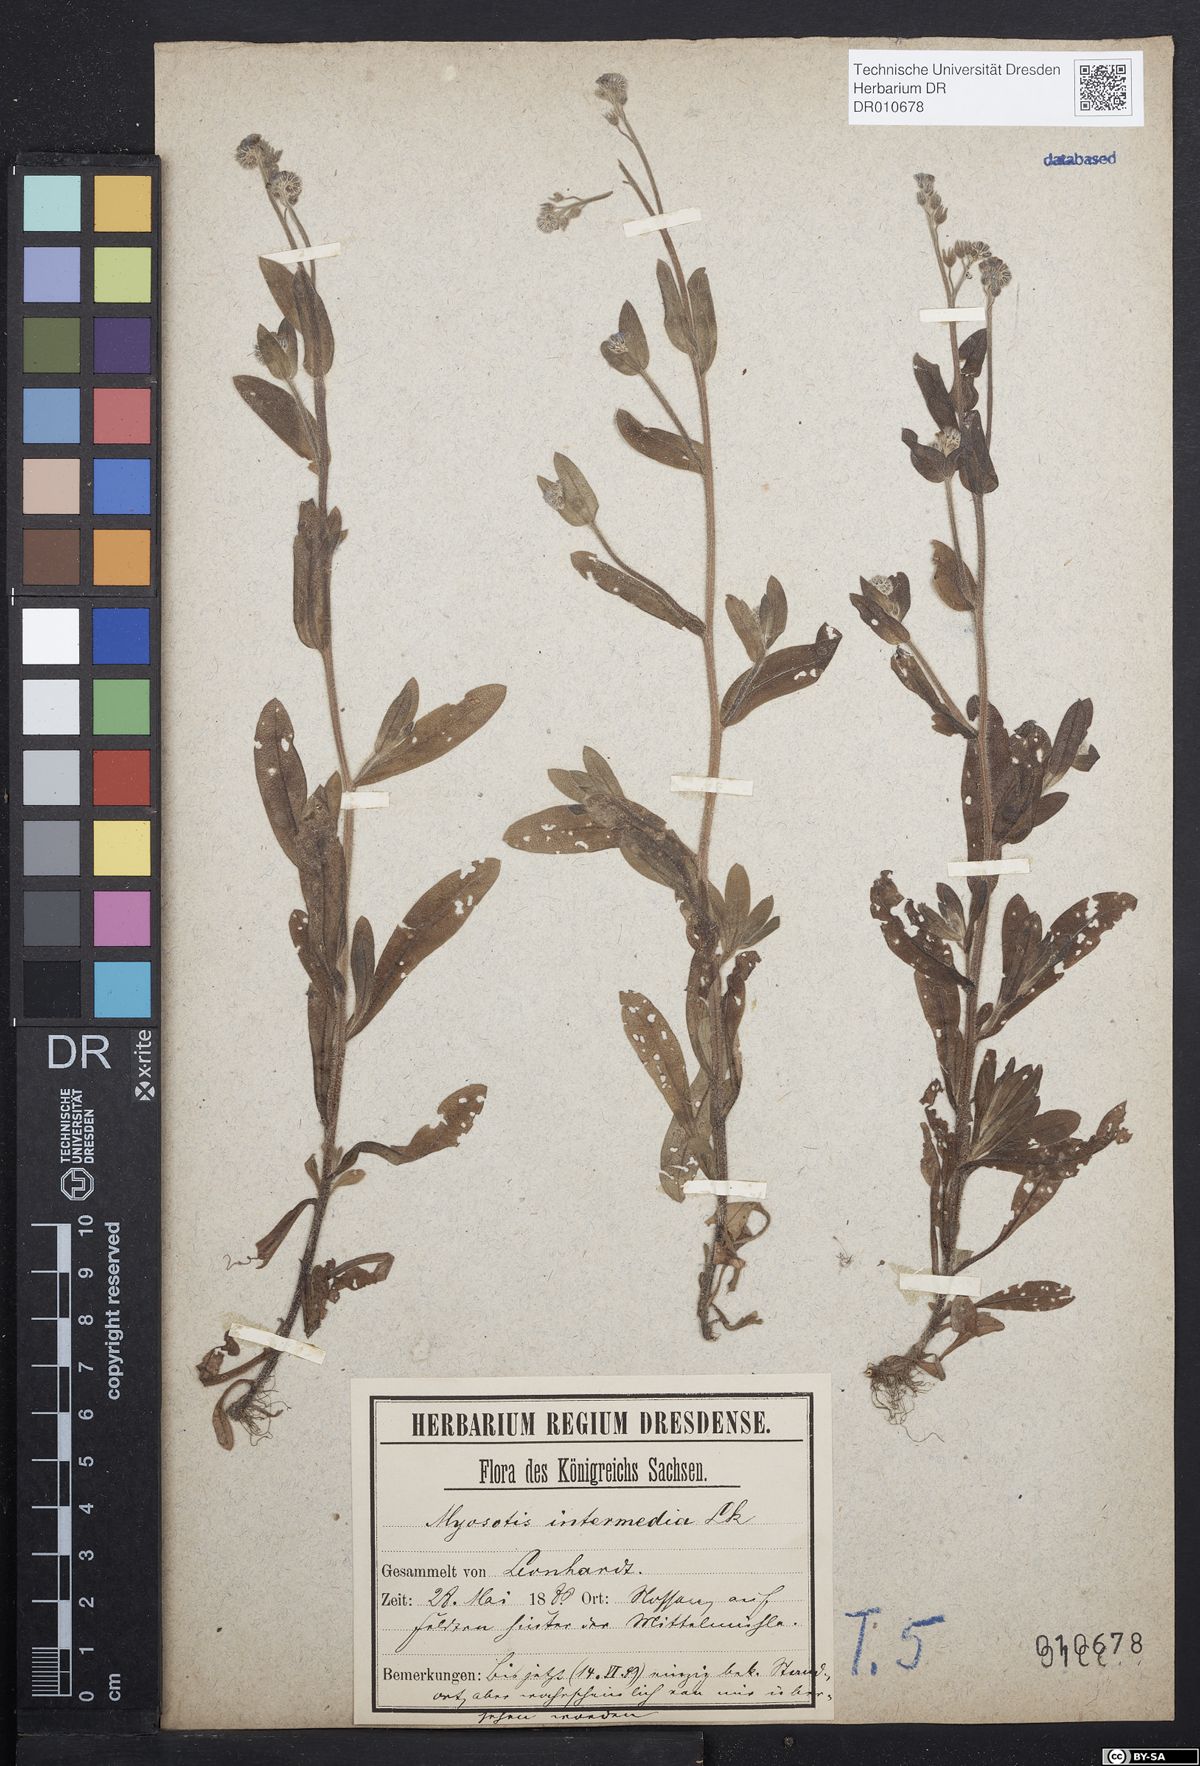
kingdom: Plantae
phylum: Tracheophyta
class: Magnoliopsida
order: Boraginales
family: Boraginaceae
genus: Myosotis
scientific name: Myosotis arvensis
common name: Field forget-me-not
